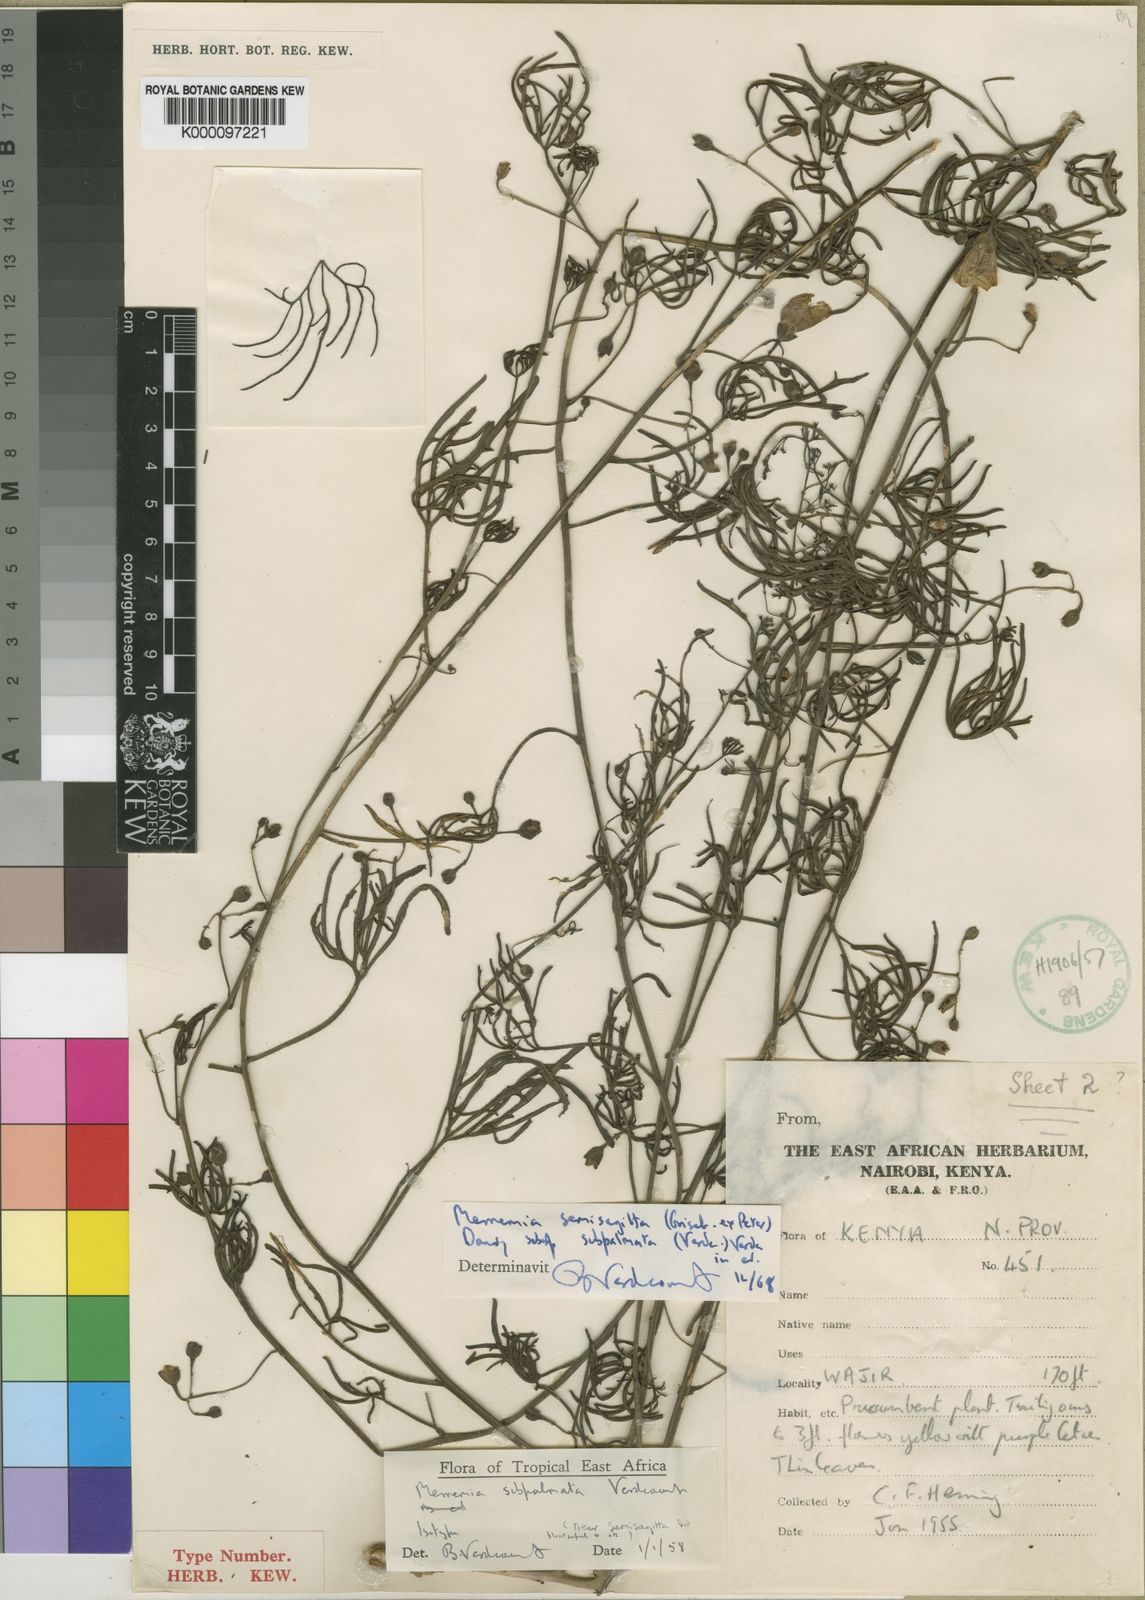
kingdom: Plantae
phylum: Tracheophyta
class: Magnoliopsida
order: Solanales
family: Convolvulaceae
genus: Distimake
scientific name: Distimake
